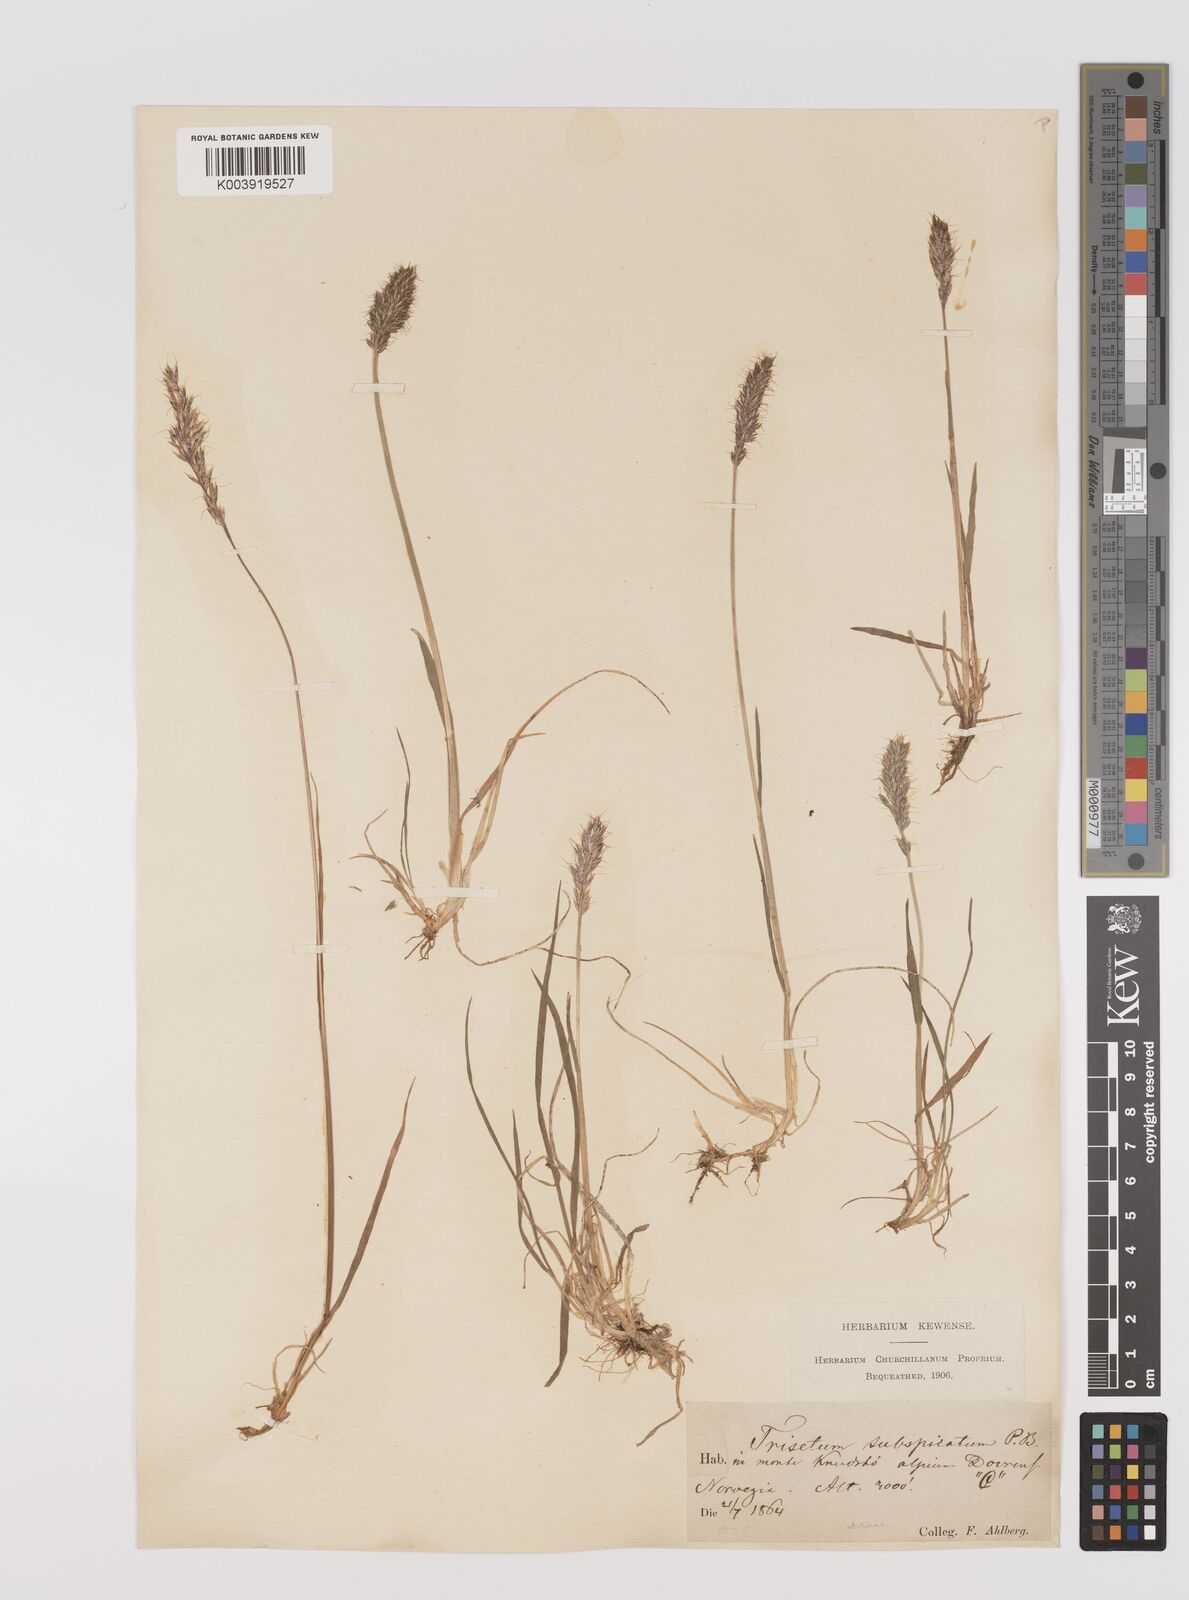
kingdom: Plantae
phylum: Tracheophyta
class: Liliopsida
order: Poales
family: Poaceae
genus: Koeleria
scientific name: Koeleria spicata
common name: Mountain trisetum
